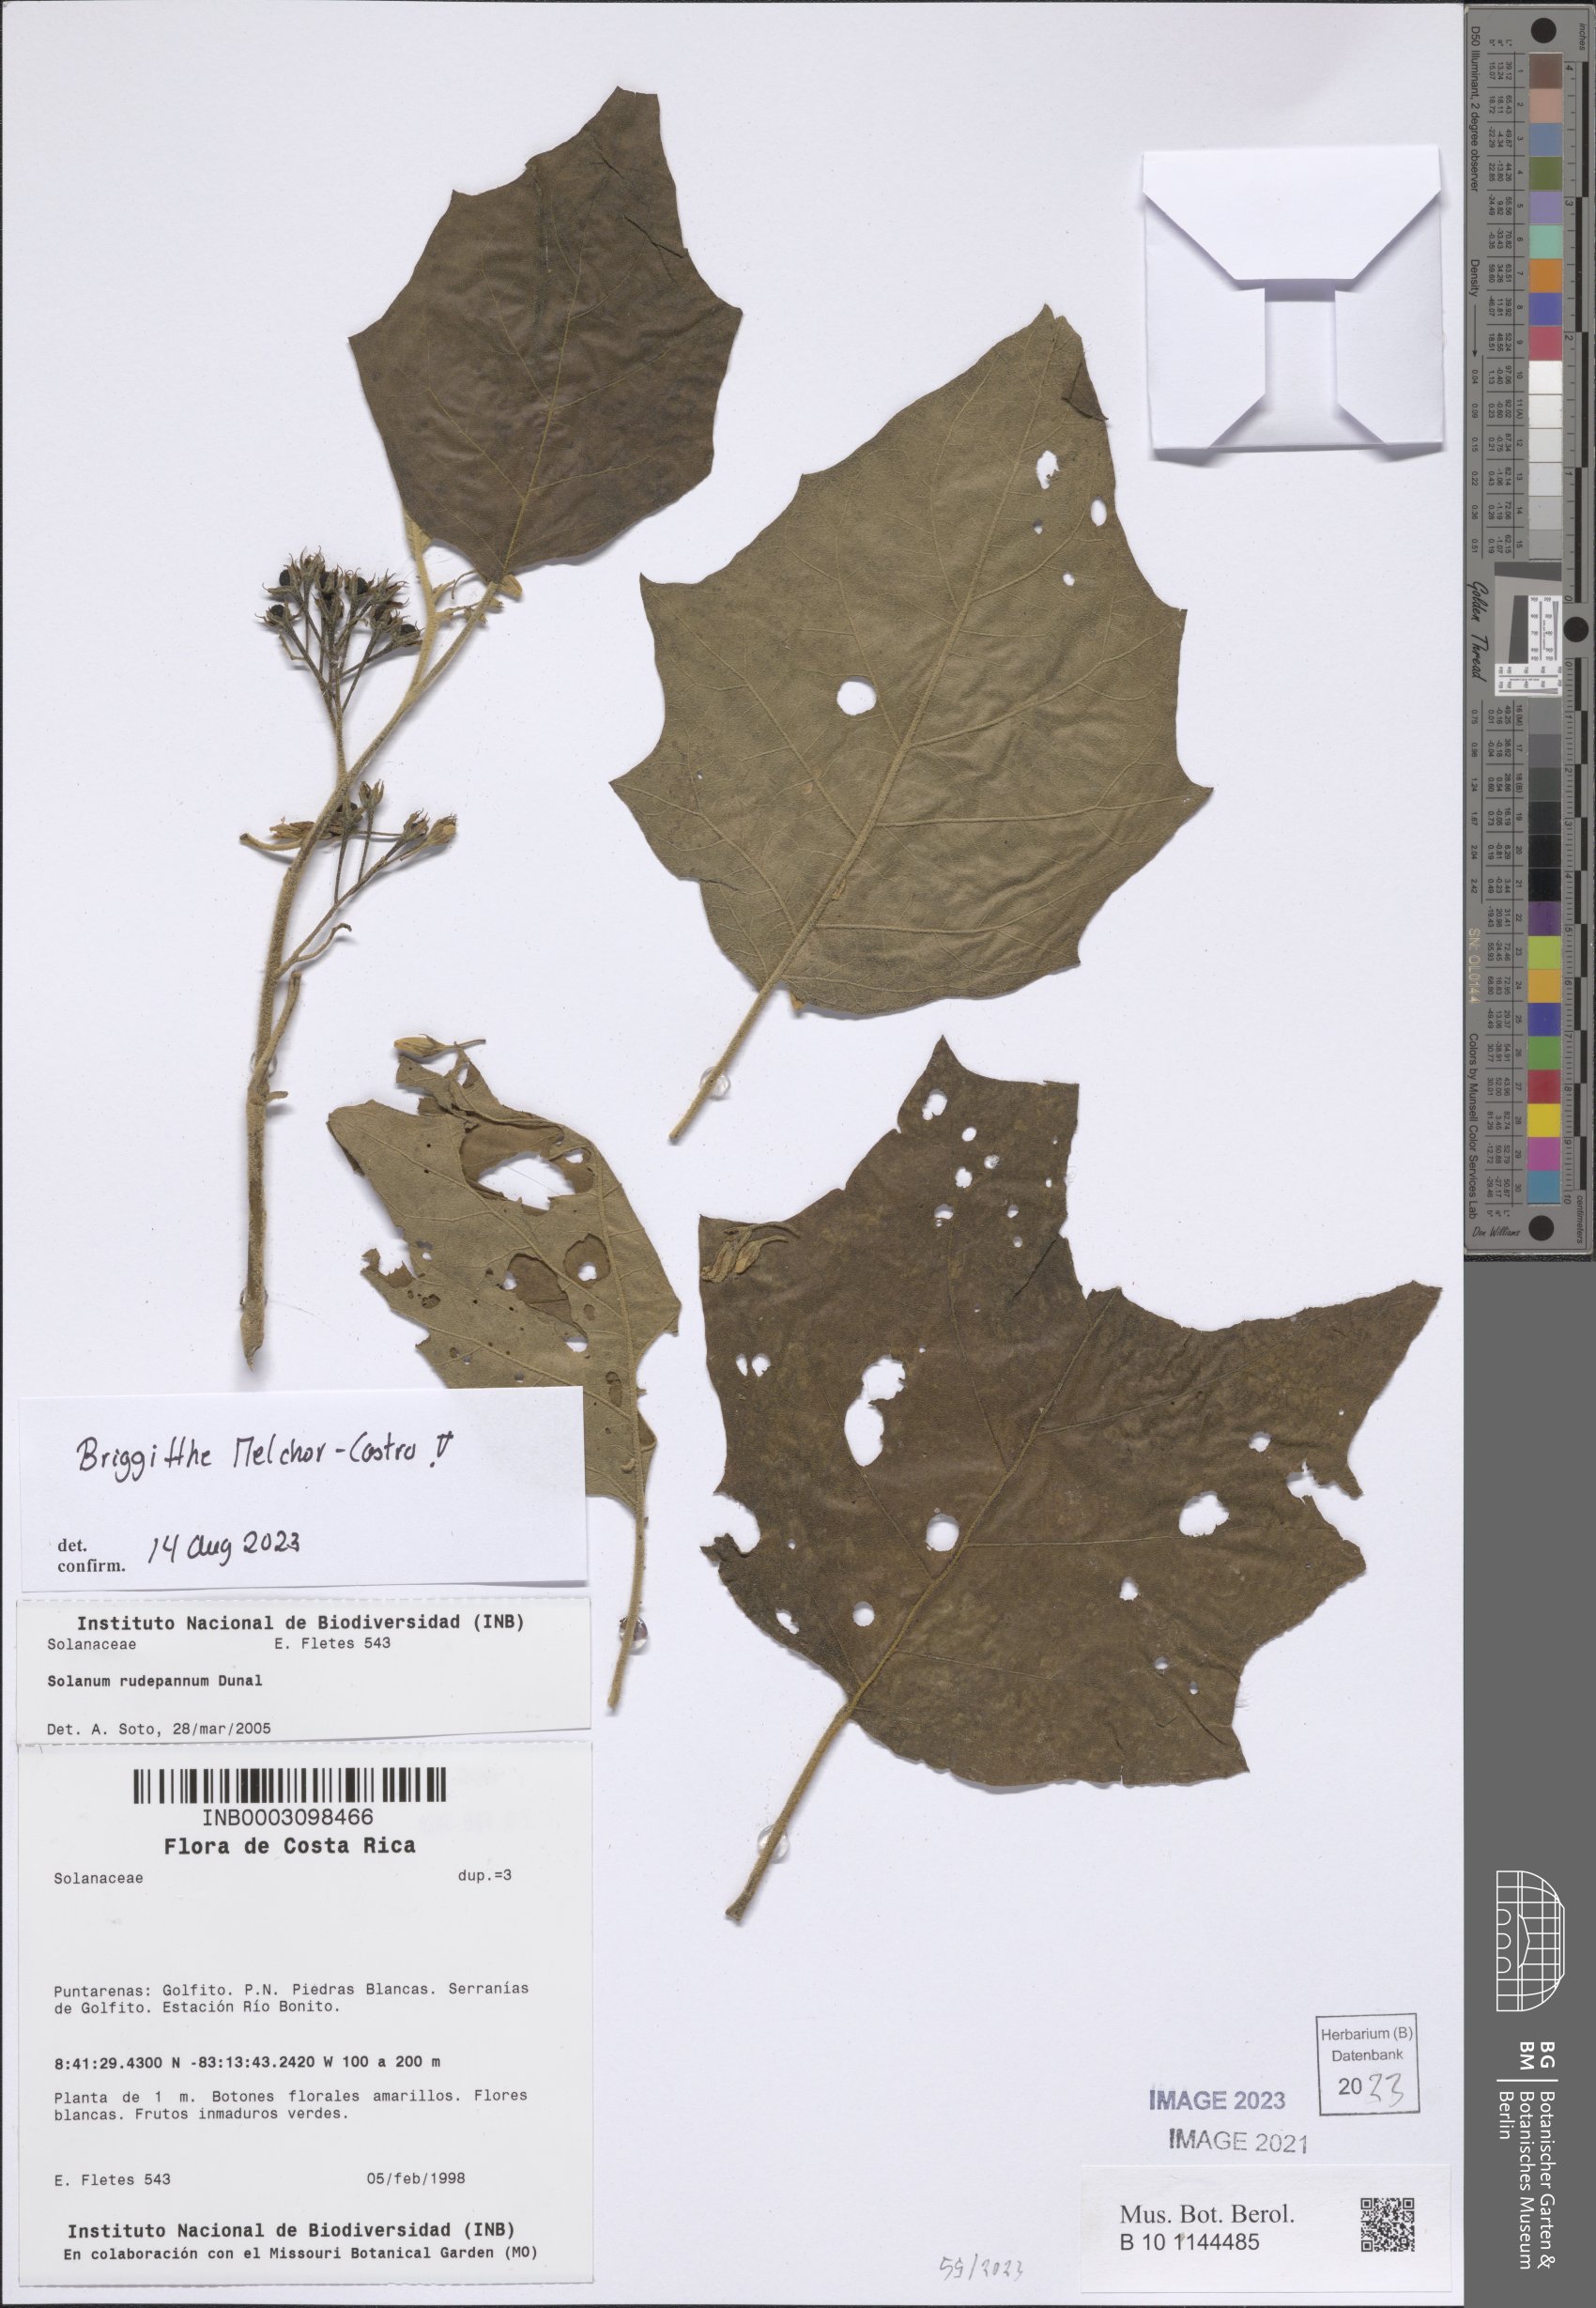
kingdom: Plantae
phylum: Tracheophyta
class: Magnoliopsida
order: Solanales
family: Solanaceae
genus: Solanum
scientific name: Solanum rude-pannum
